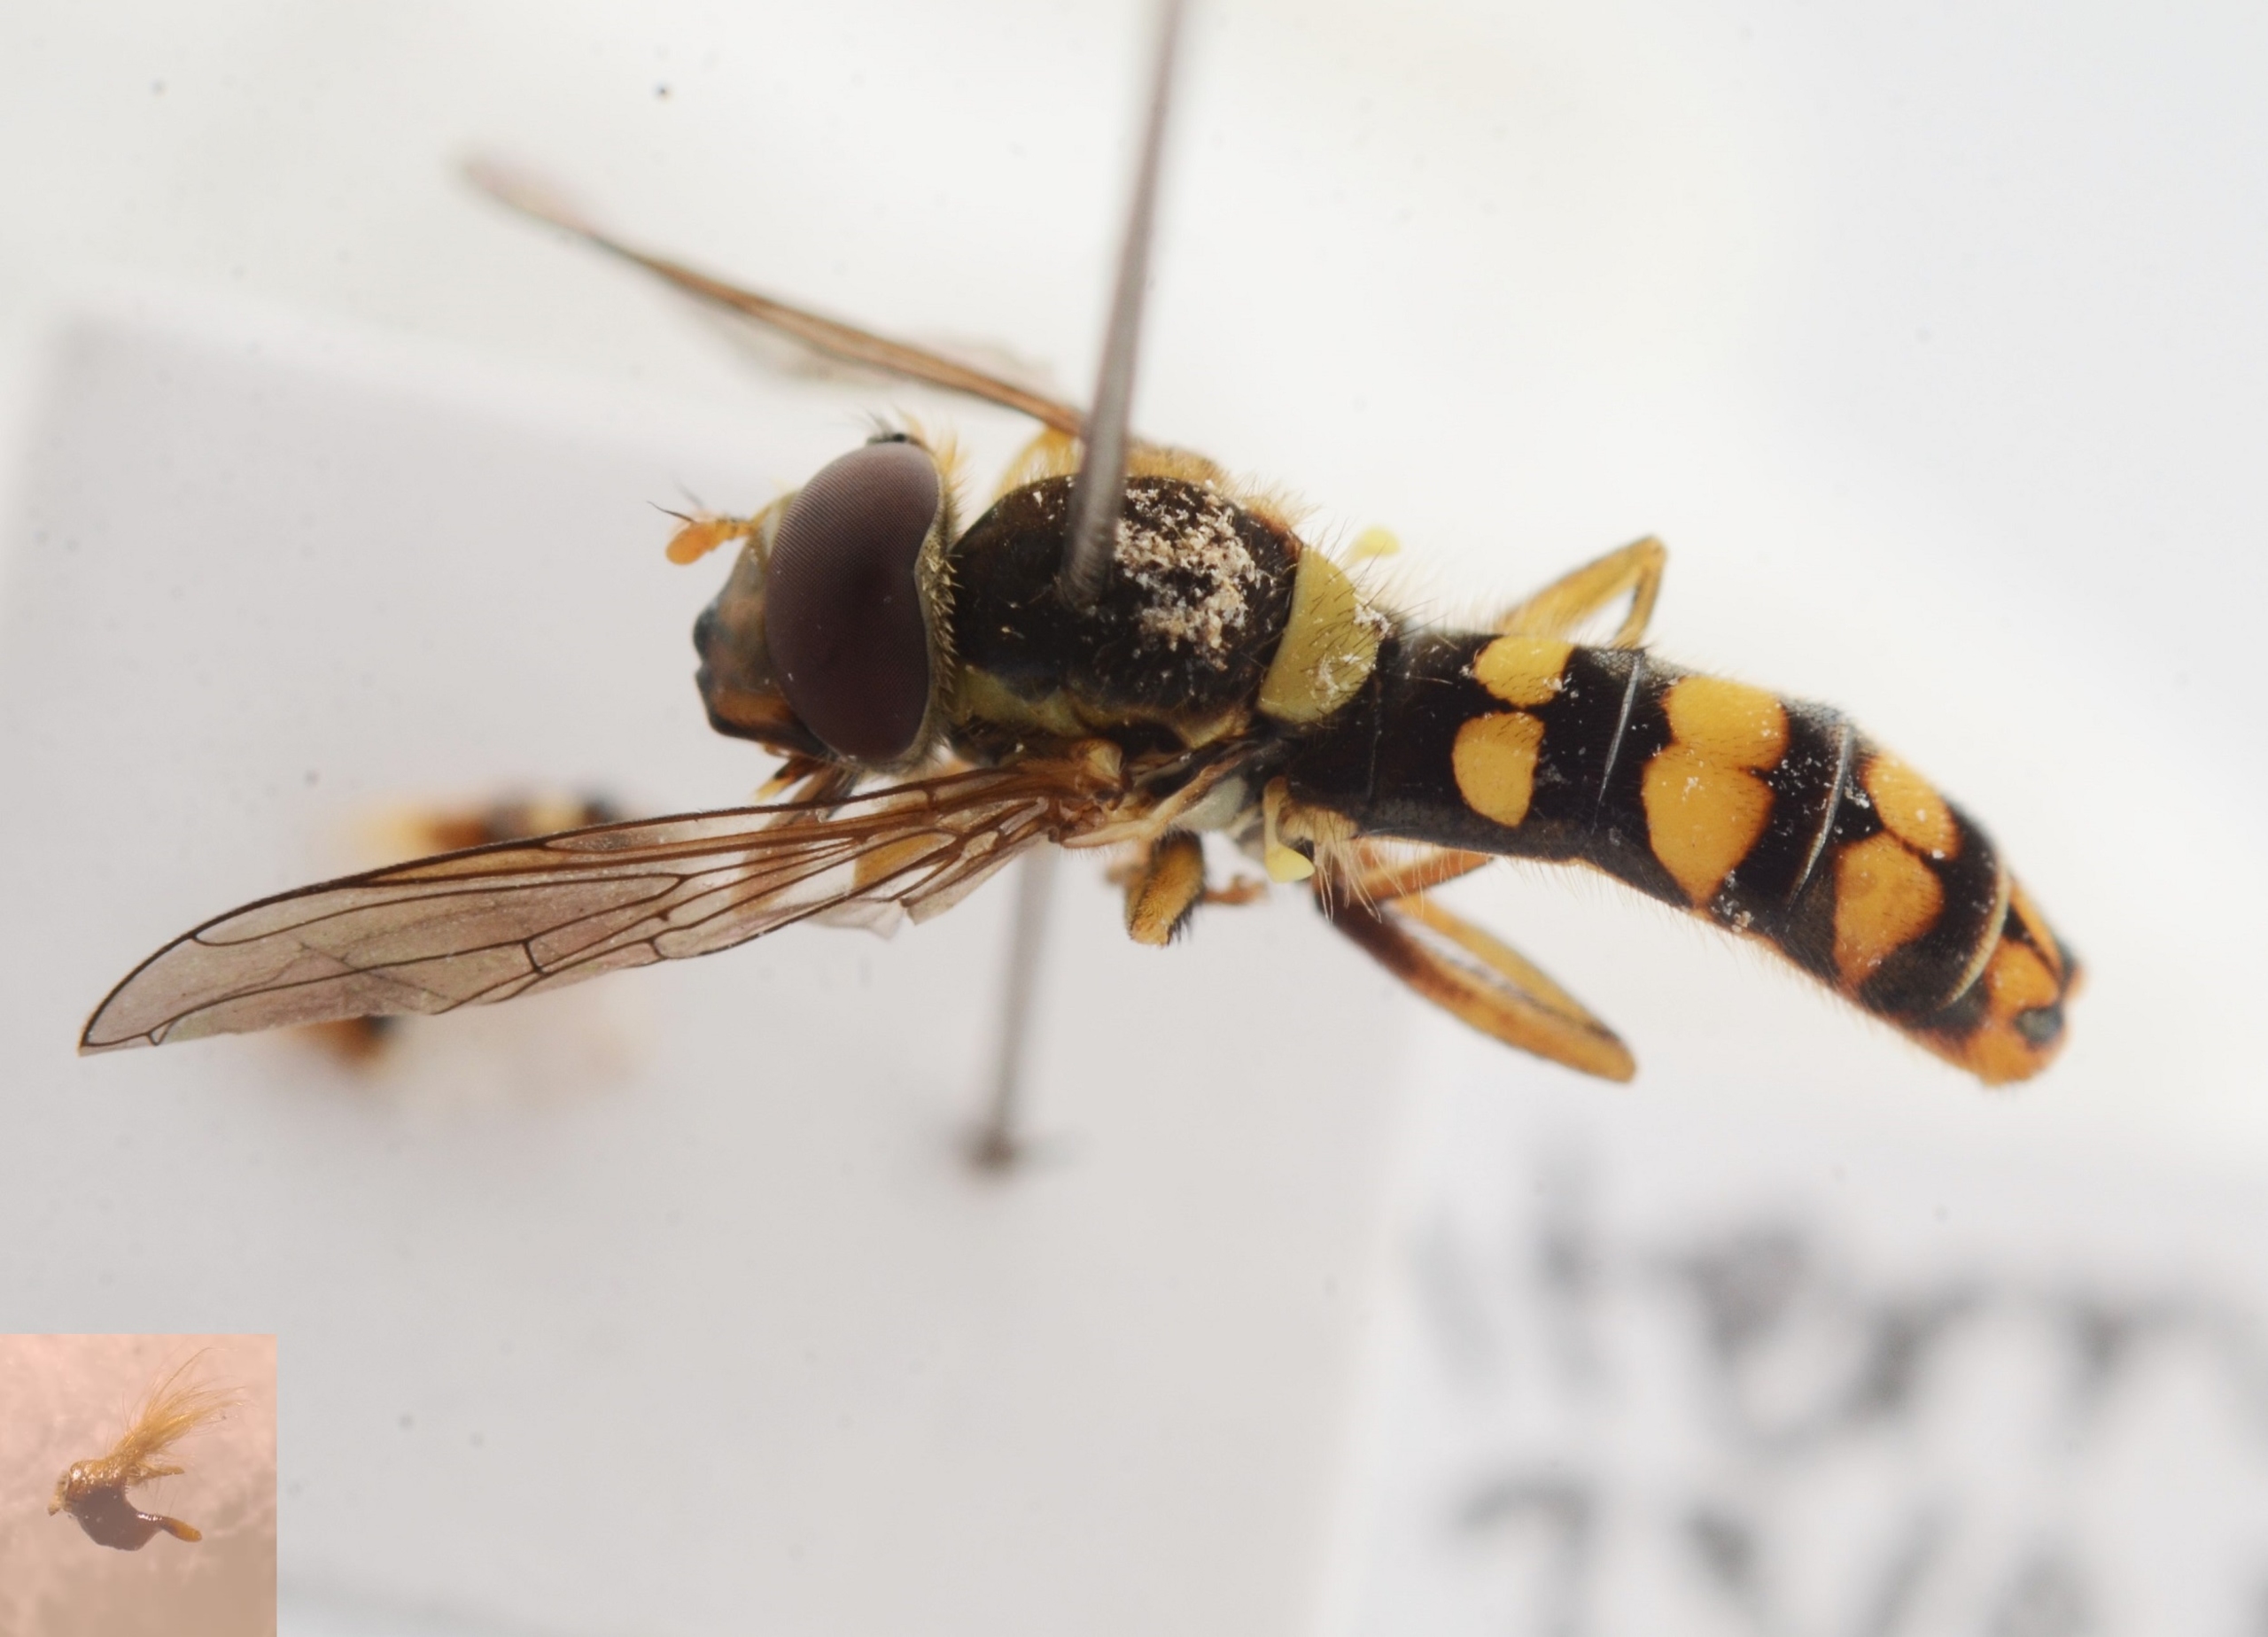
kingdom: Animalia
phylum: Arthropoda
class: Insecta
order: Diptera
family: Syrphidae
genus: Sphaerophoria
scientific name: Sphaerophoria interrupta
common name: Plettet kuglebærerflue
